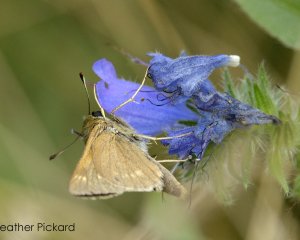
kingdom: Animalia
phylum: Arthropoda
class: Insecta
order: Lepidoptera
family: Hesperiidae
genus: Polites
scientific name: Polites
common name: Crossline Skipper
